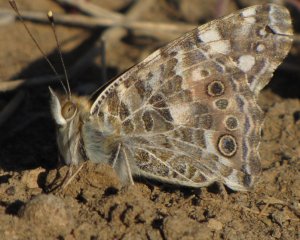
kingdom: Animalia
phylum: Arthropoda
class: Insecta
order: Lepidoptera
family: Nymphalidae
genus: Vanessa
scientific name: Vanessa cardui
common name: Painted Lady
